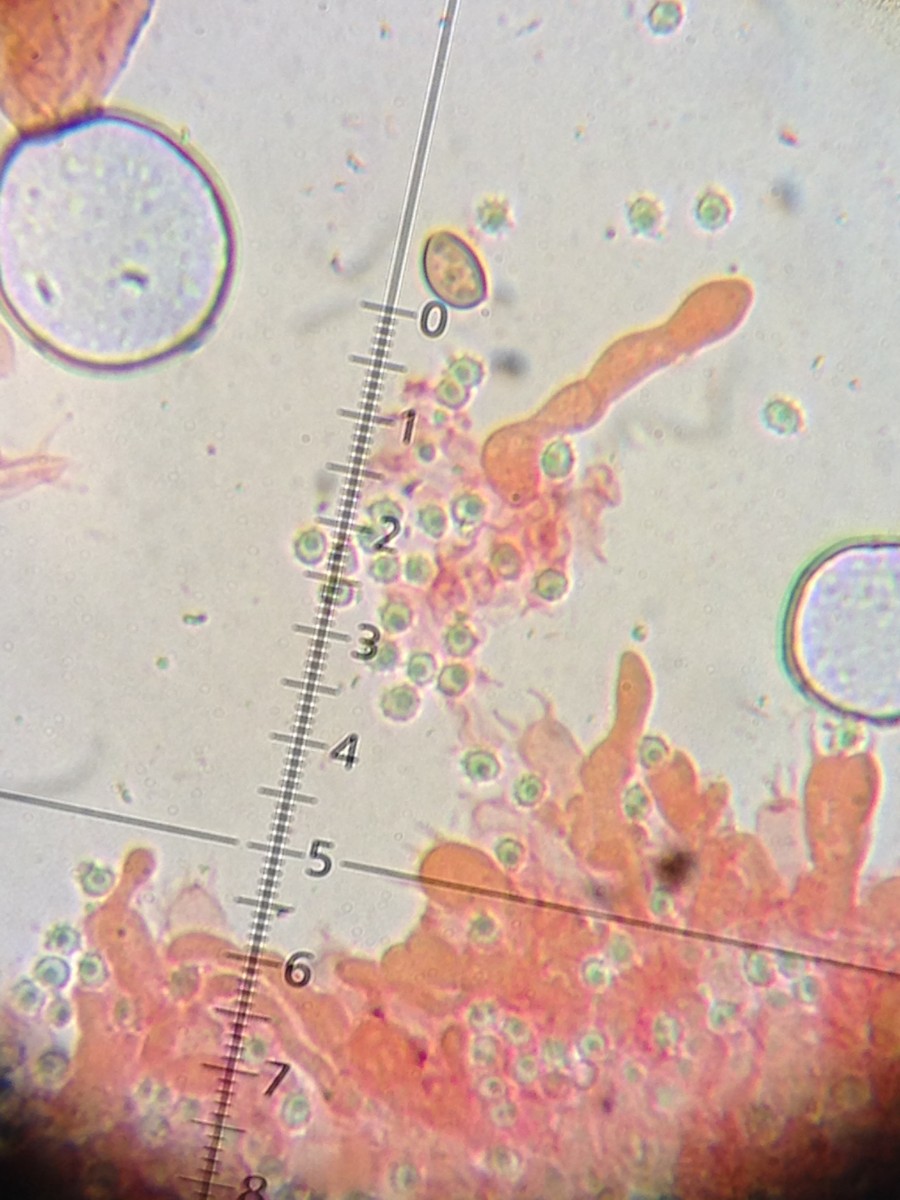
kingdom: Fungi
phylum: Basidiomycota
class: Agaricomycetes
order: Trechisporales
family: Sistotremataceae
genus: Trechispora
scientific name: Trechispora farinacea
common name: pigget vathinde
